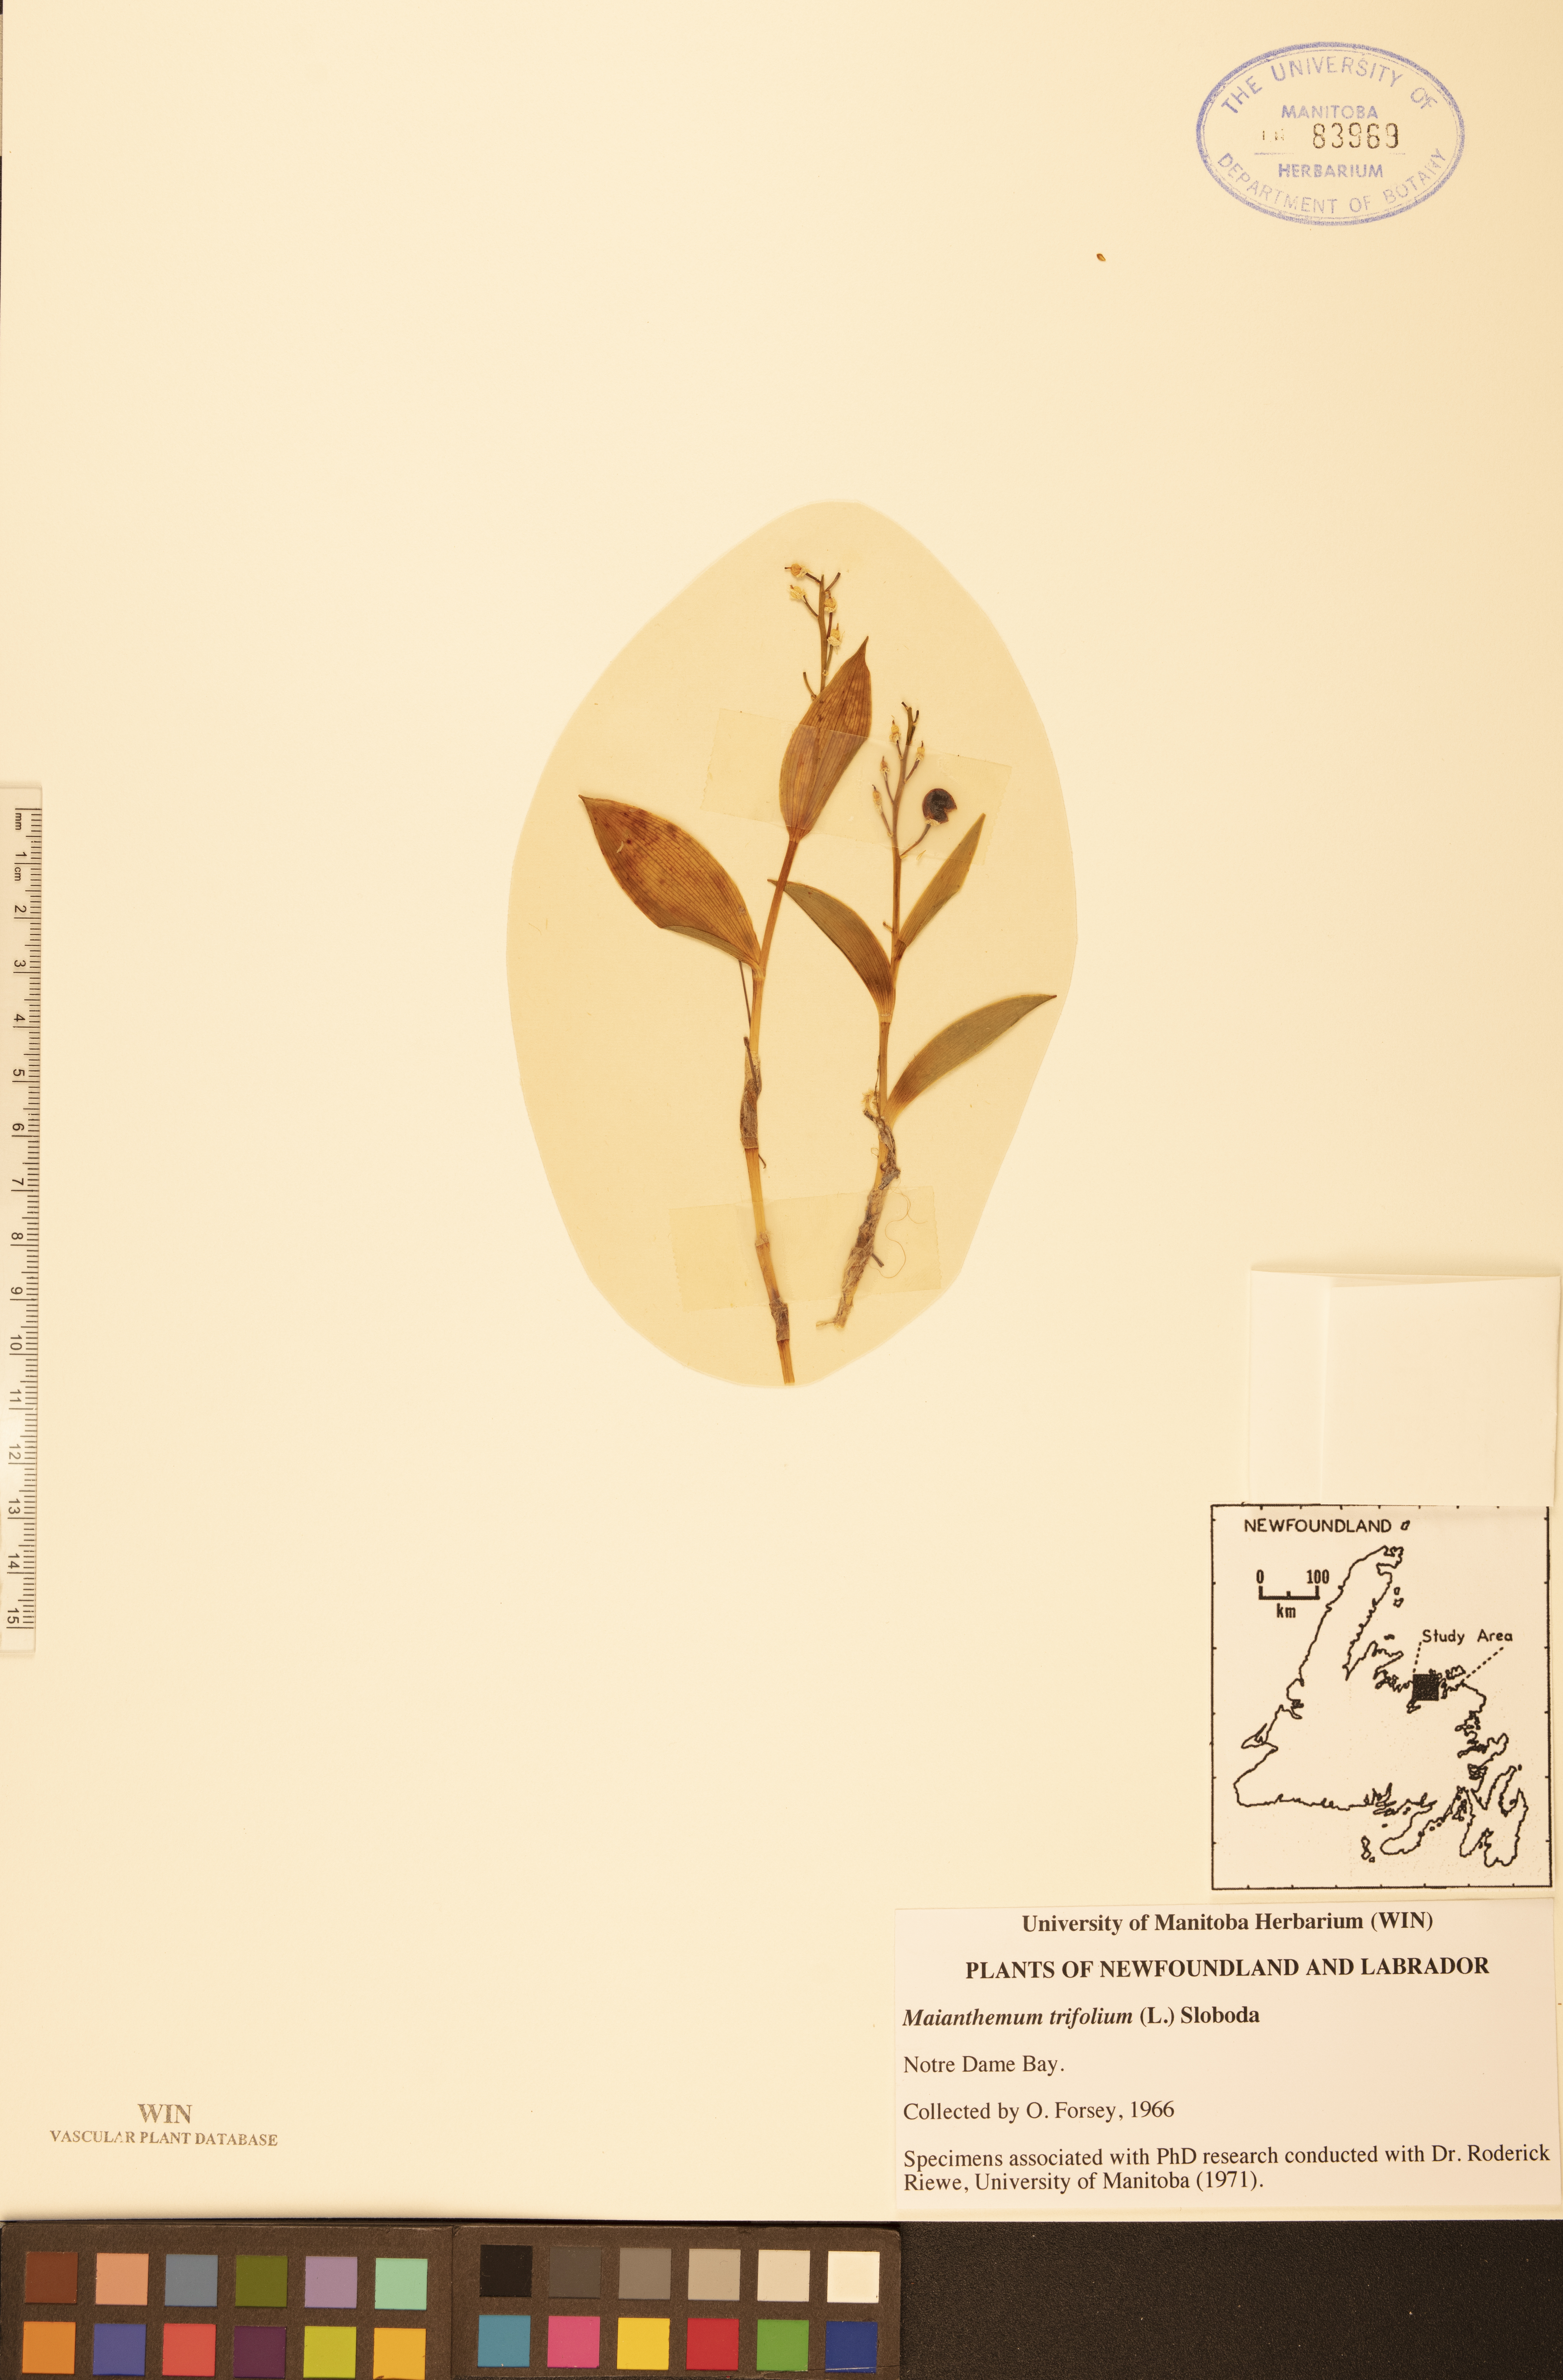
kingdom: Plantae
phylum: Tracheophyta
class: Liliopsida
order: Asparagales
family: Asparagaceae
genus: Maianthemum
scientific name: Maianthemum trifolium
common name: Swamp false solomon's seal
